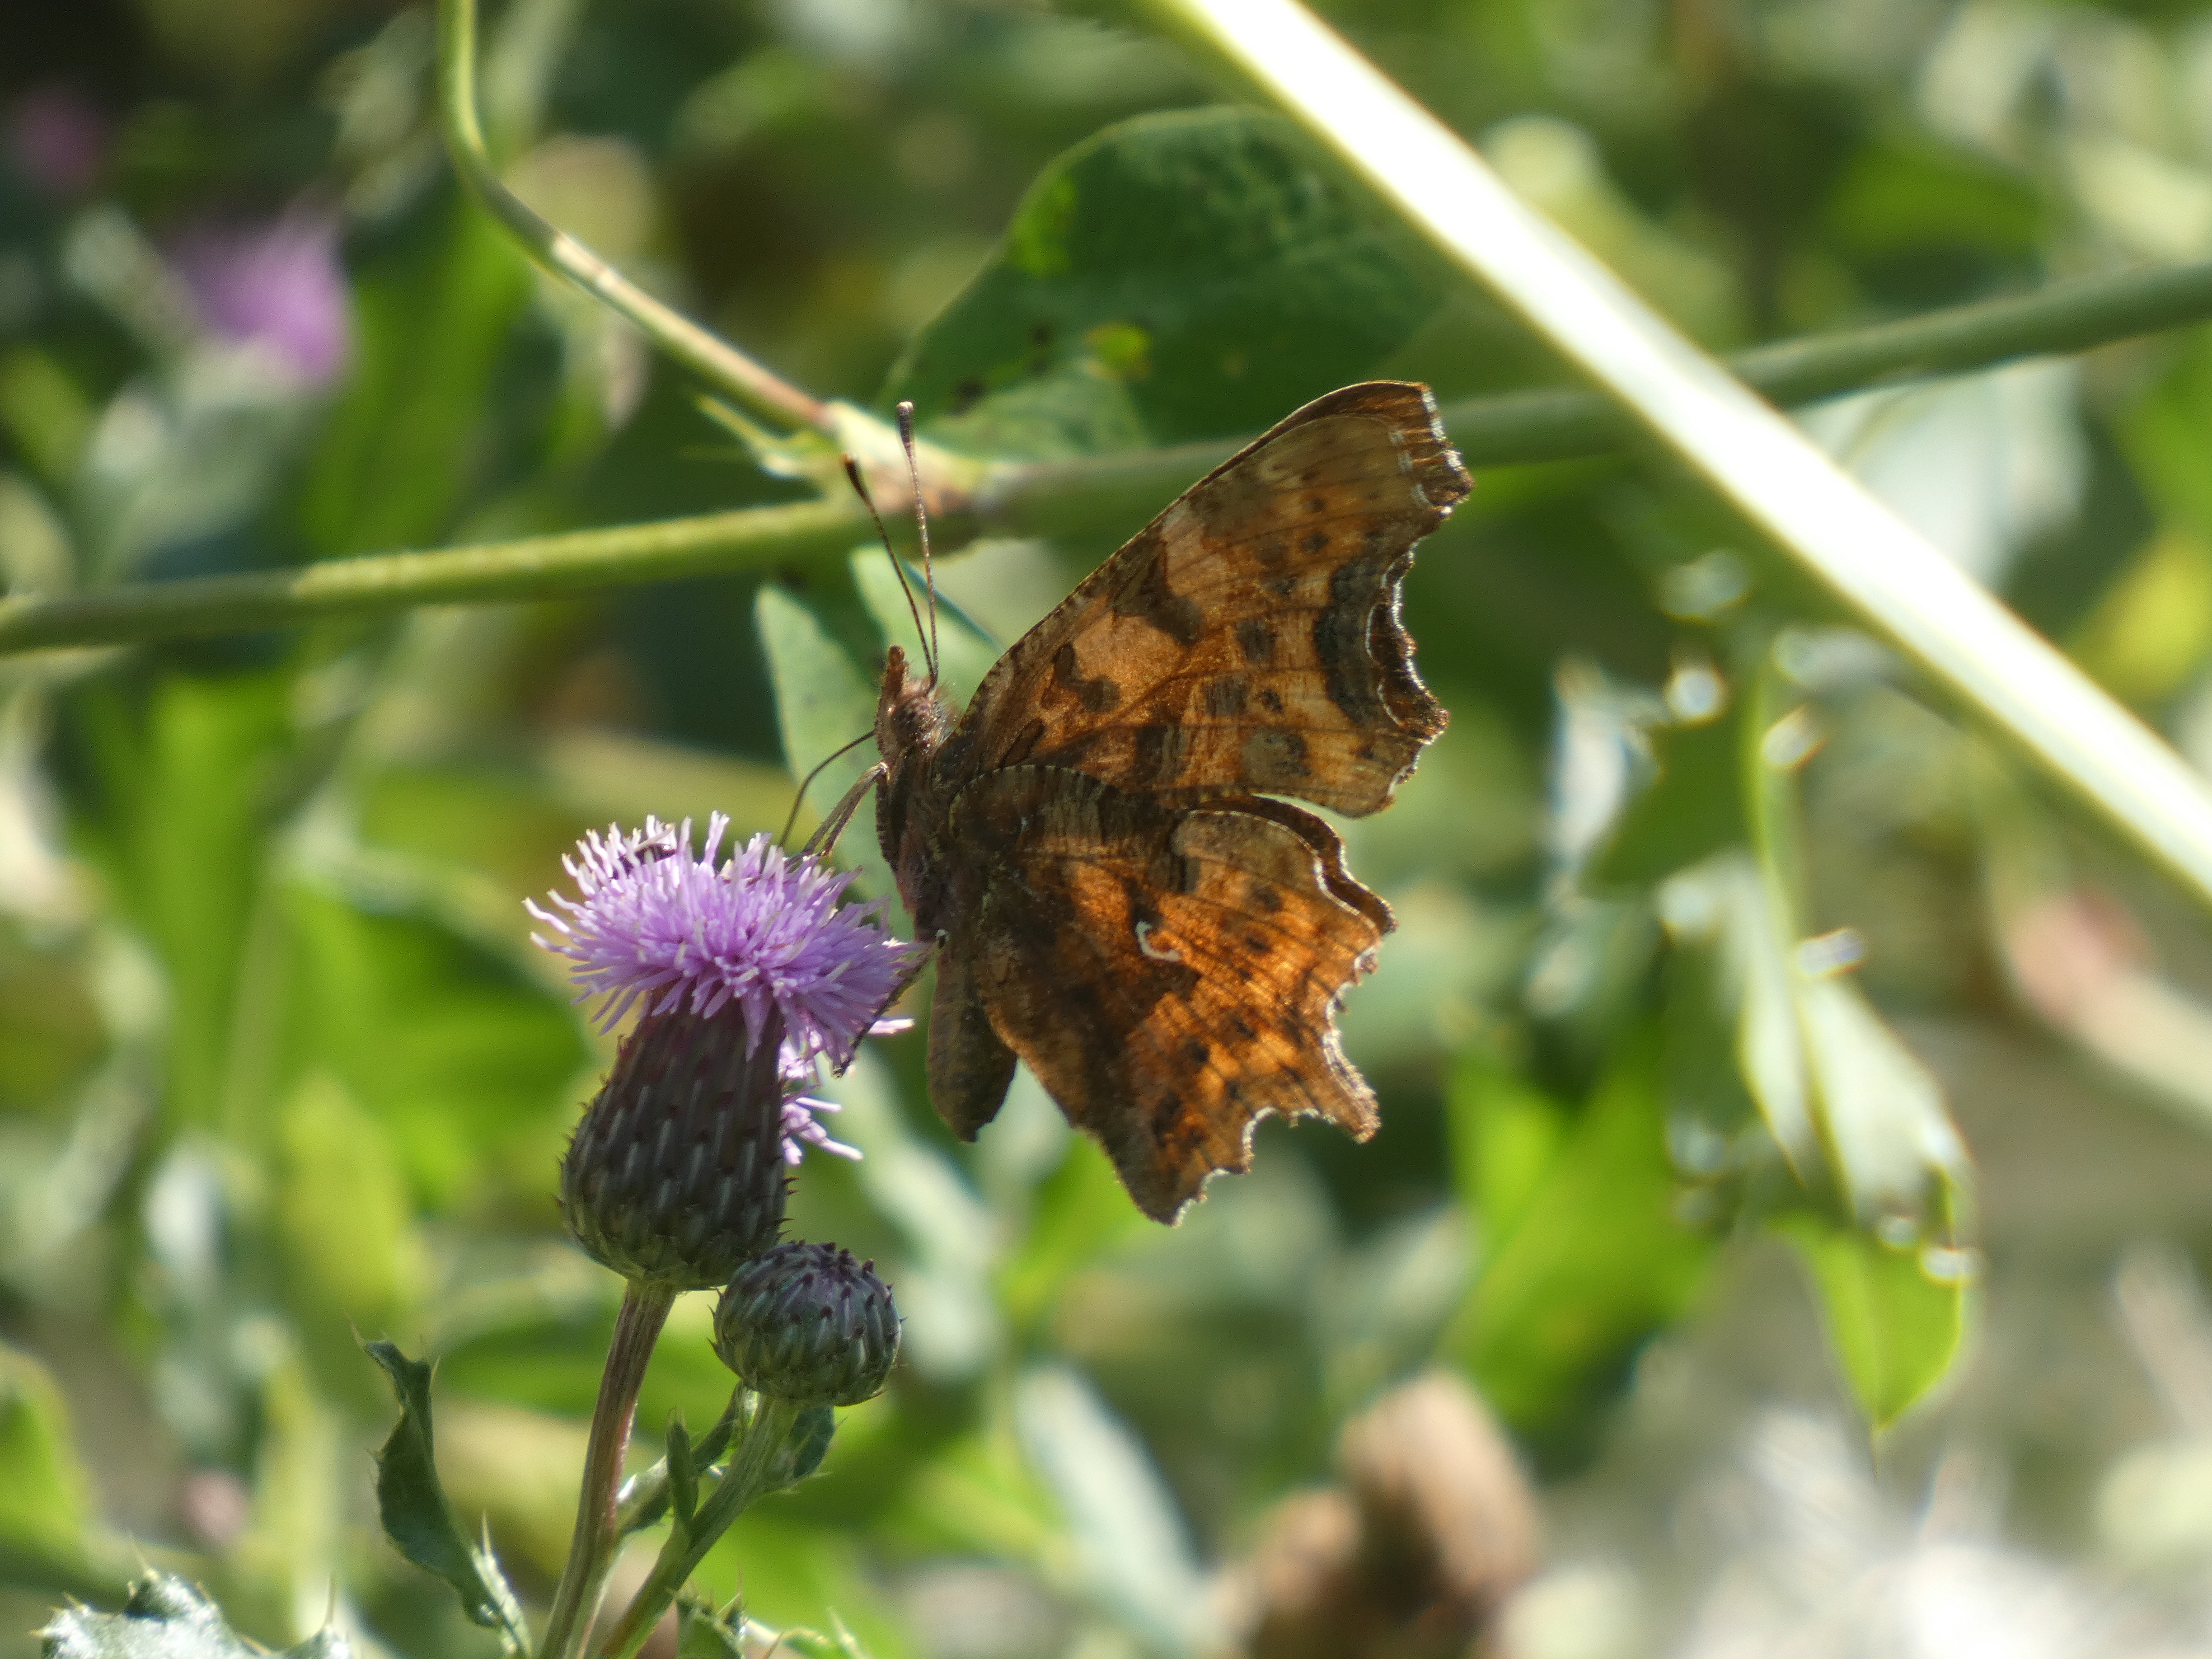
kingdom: Animalia
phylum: Arthropoda
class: Insecta
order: Lepidoptera
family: Nymphalidae
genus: Polygonia
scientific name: Polygonia c-album
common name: Det hvide C
